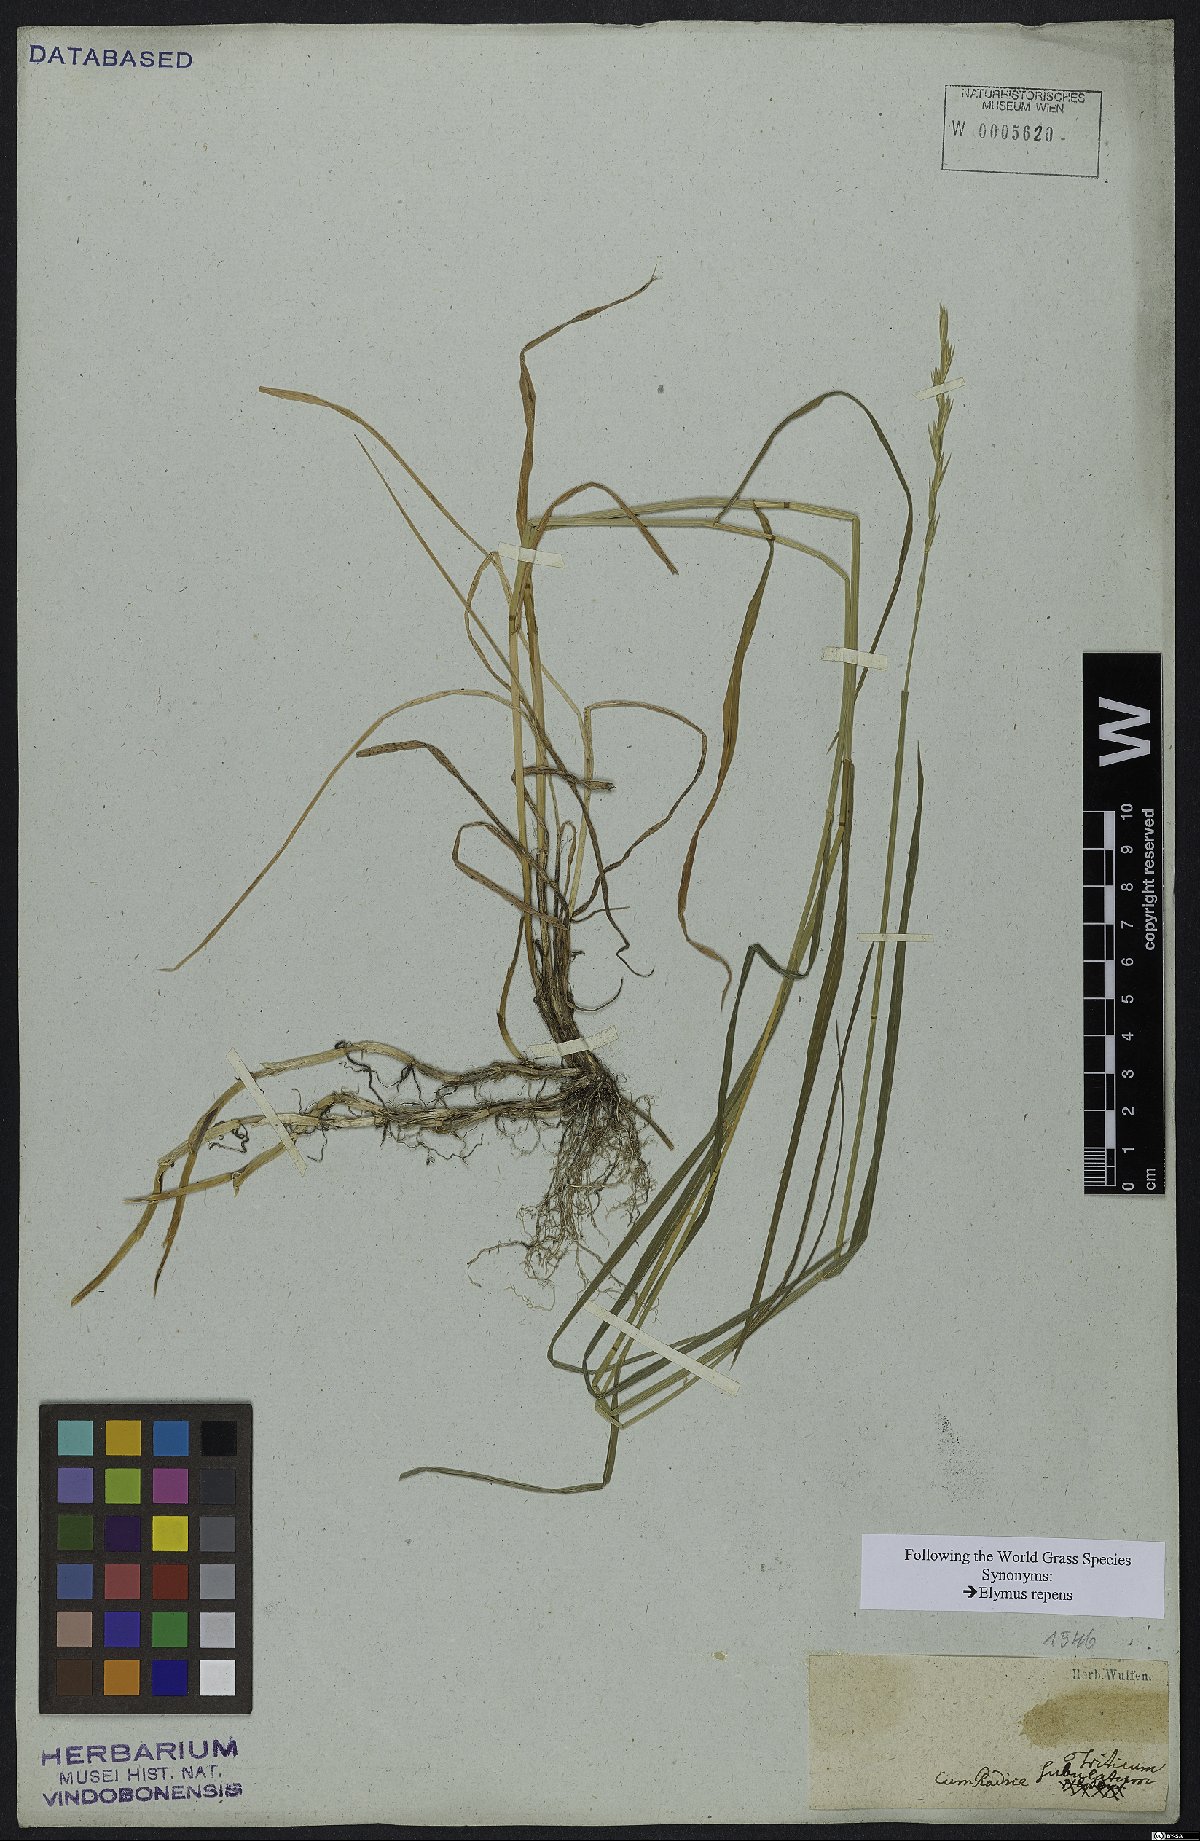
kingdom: Plantae
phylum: Tracheophyta
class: Liliopsida
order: Poales
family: Poaceae
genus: Elymus
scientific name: Elymus repens
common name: Quackgrass
